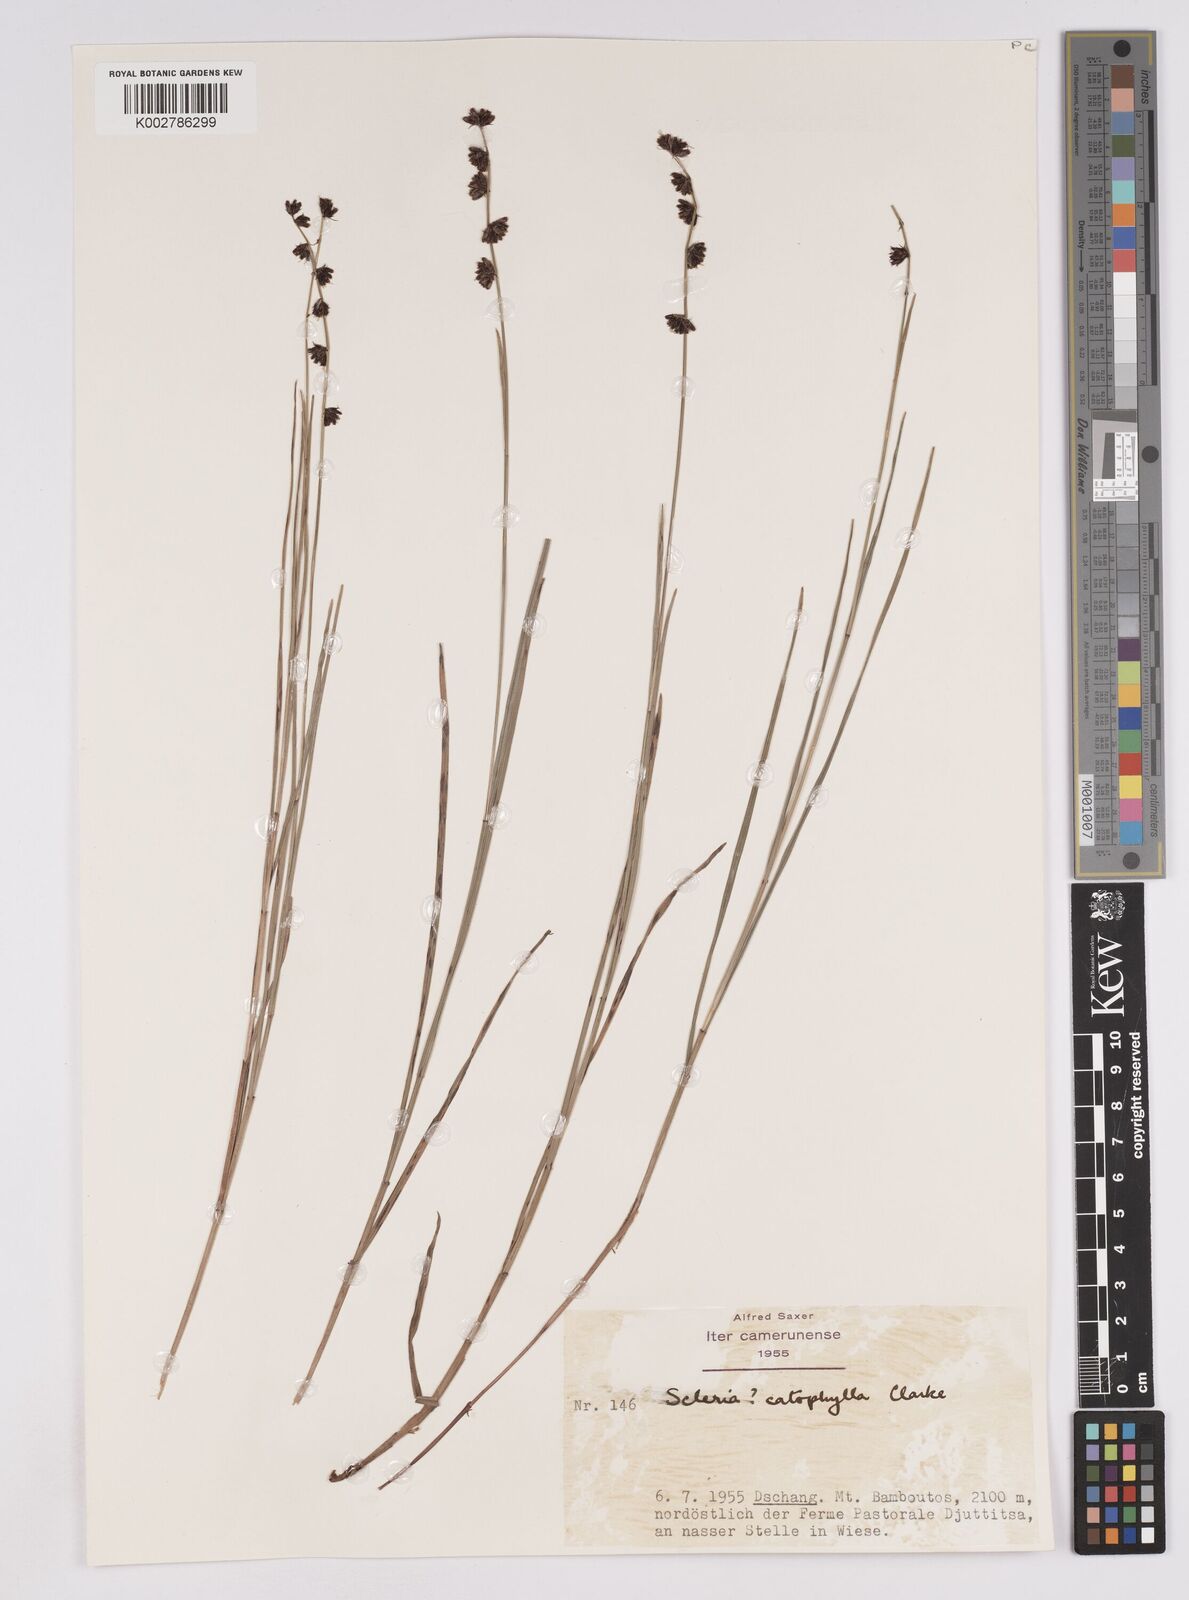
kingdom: Plantae
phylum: Tracheophyta
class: Liliopsida
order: Poales
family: Cyperaceae
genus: Scleria
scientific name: Scleria brownii
